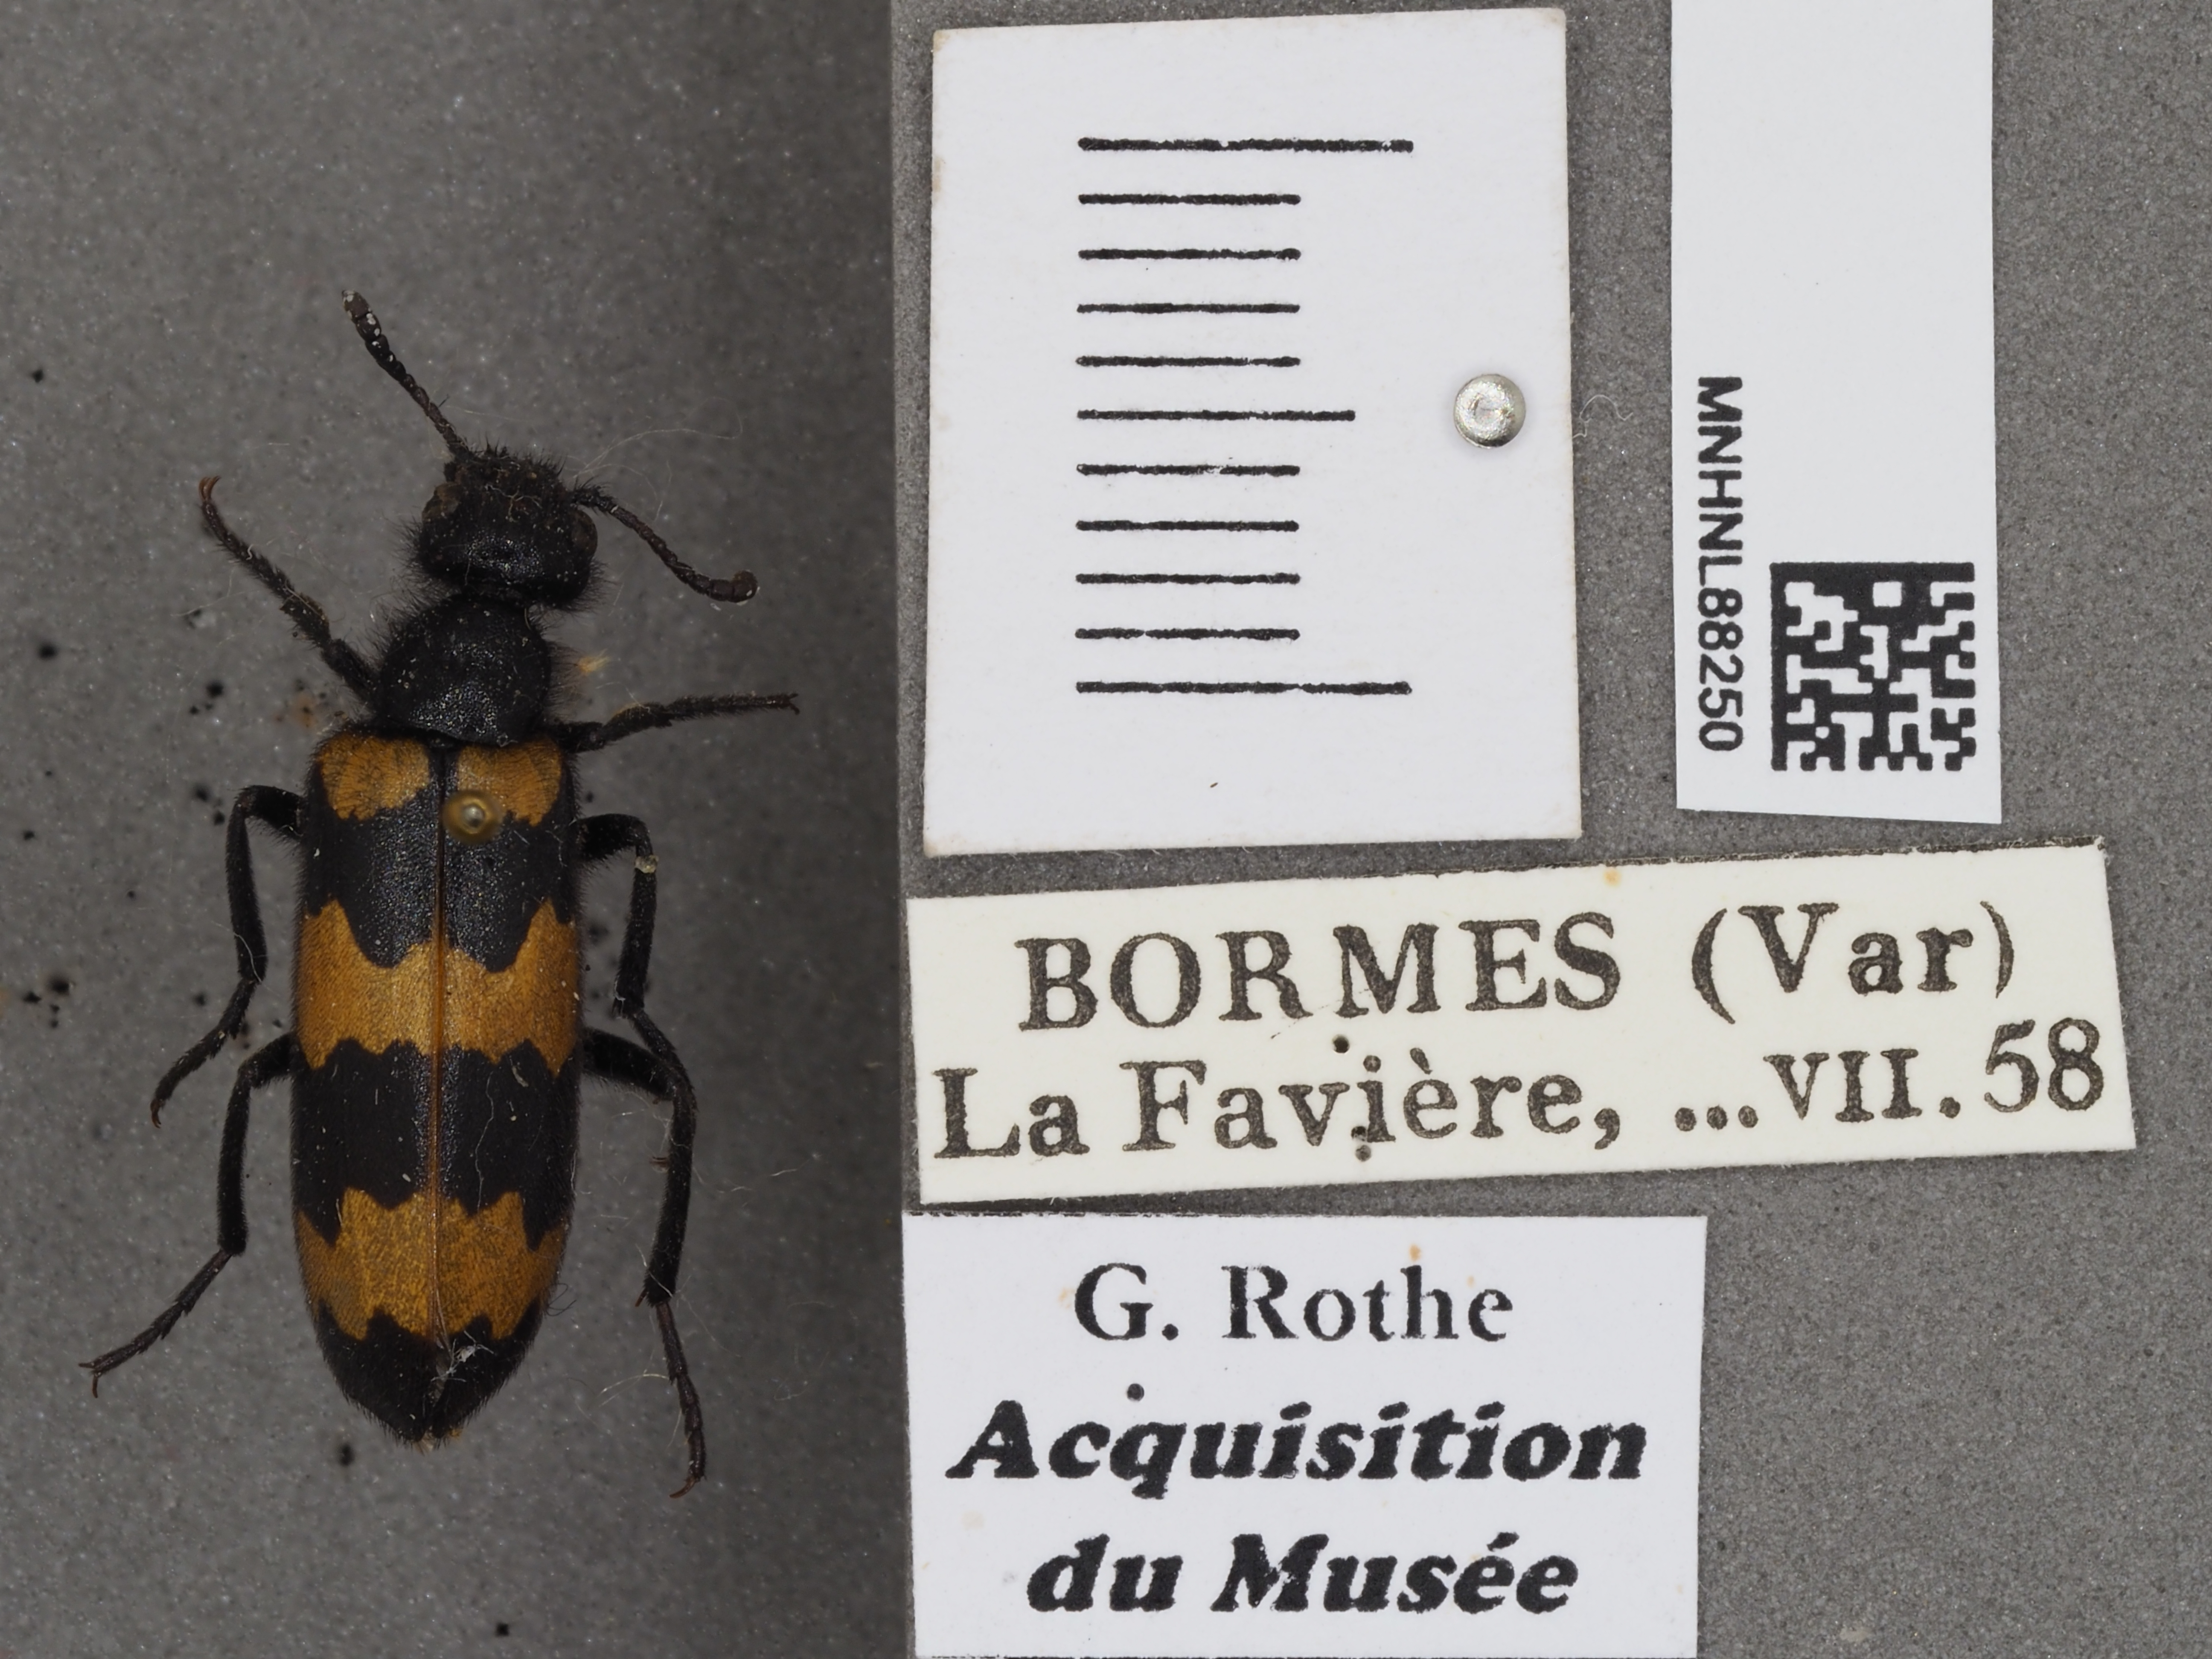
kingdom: Animalia
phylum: Arthropoda
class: Insecta
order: Coleoptera
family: Meloidae
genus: Mylabris
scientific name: Mylabris variabilis
